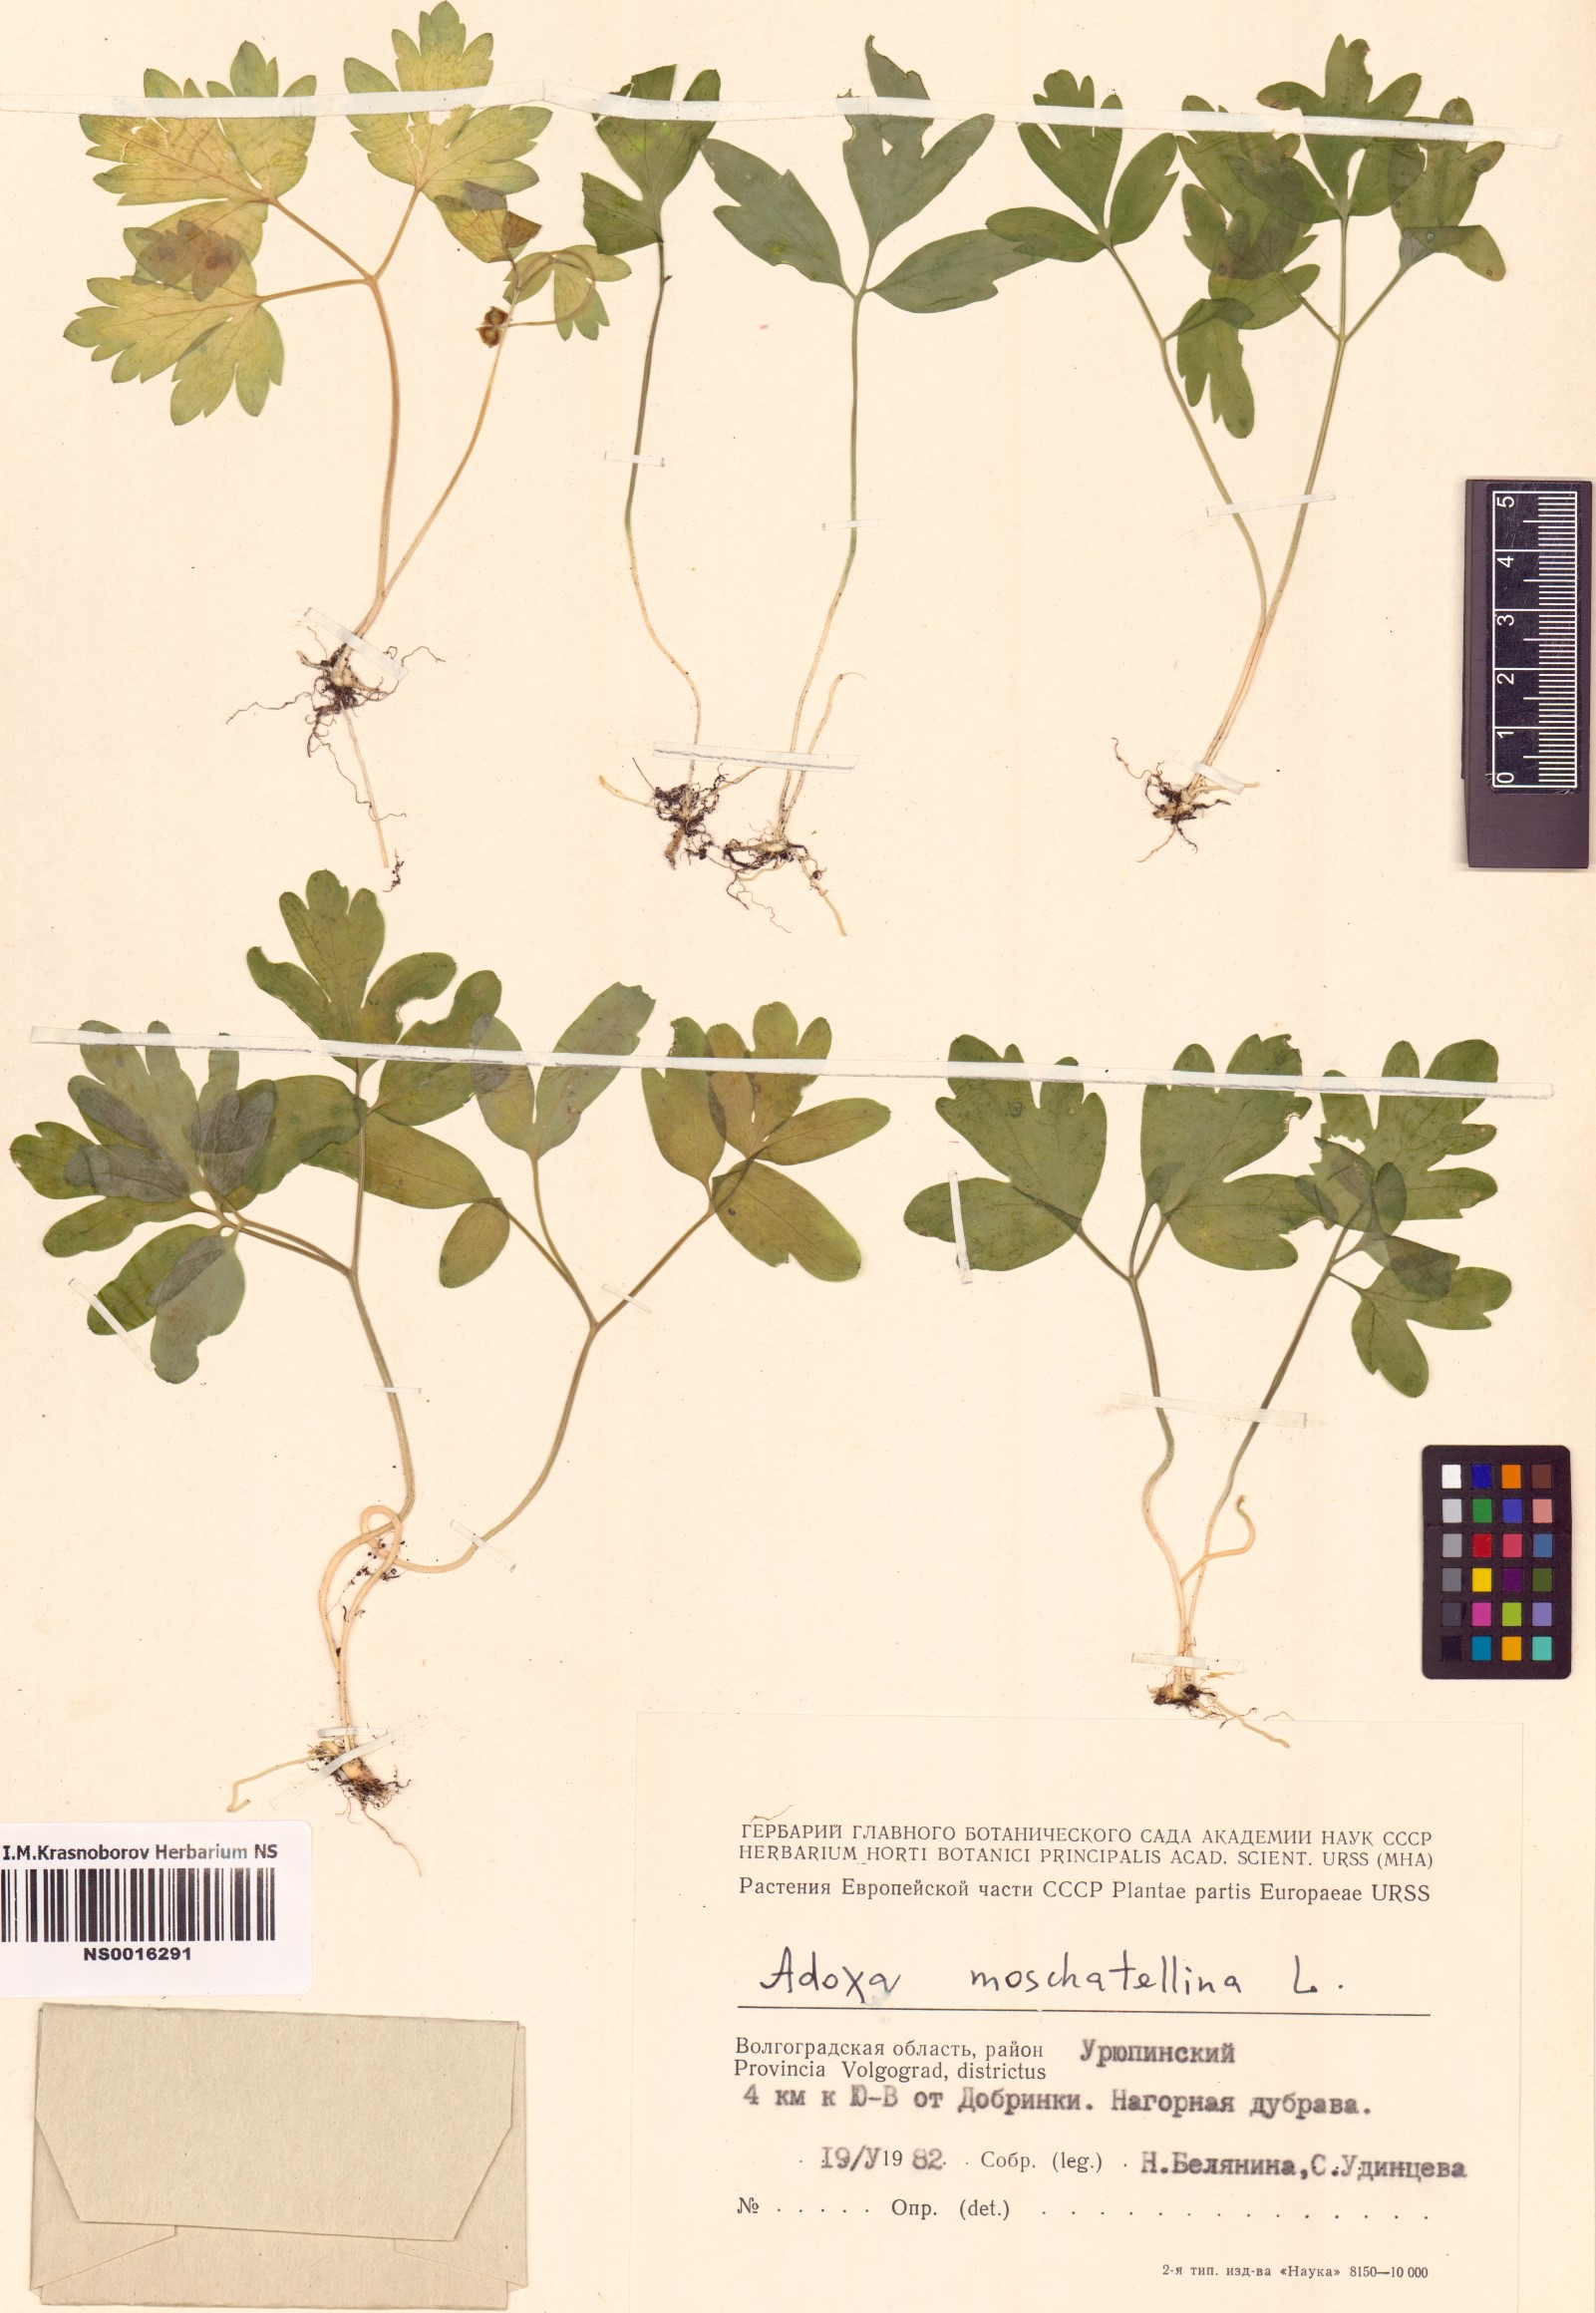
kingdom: Plantae
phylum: Tracheophyta
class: Magnoliopsida
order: Dipsacales
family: Viburnaceae
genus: Adoxa
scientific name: Adoxa moschatellina
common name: Moschatel
